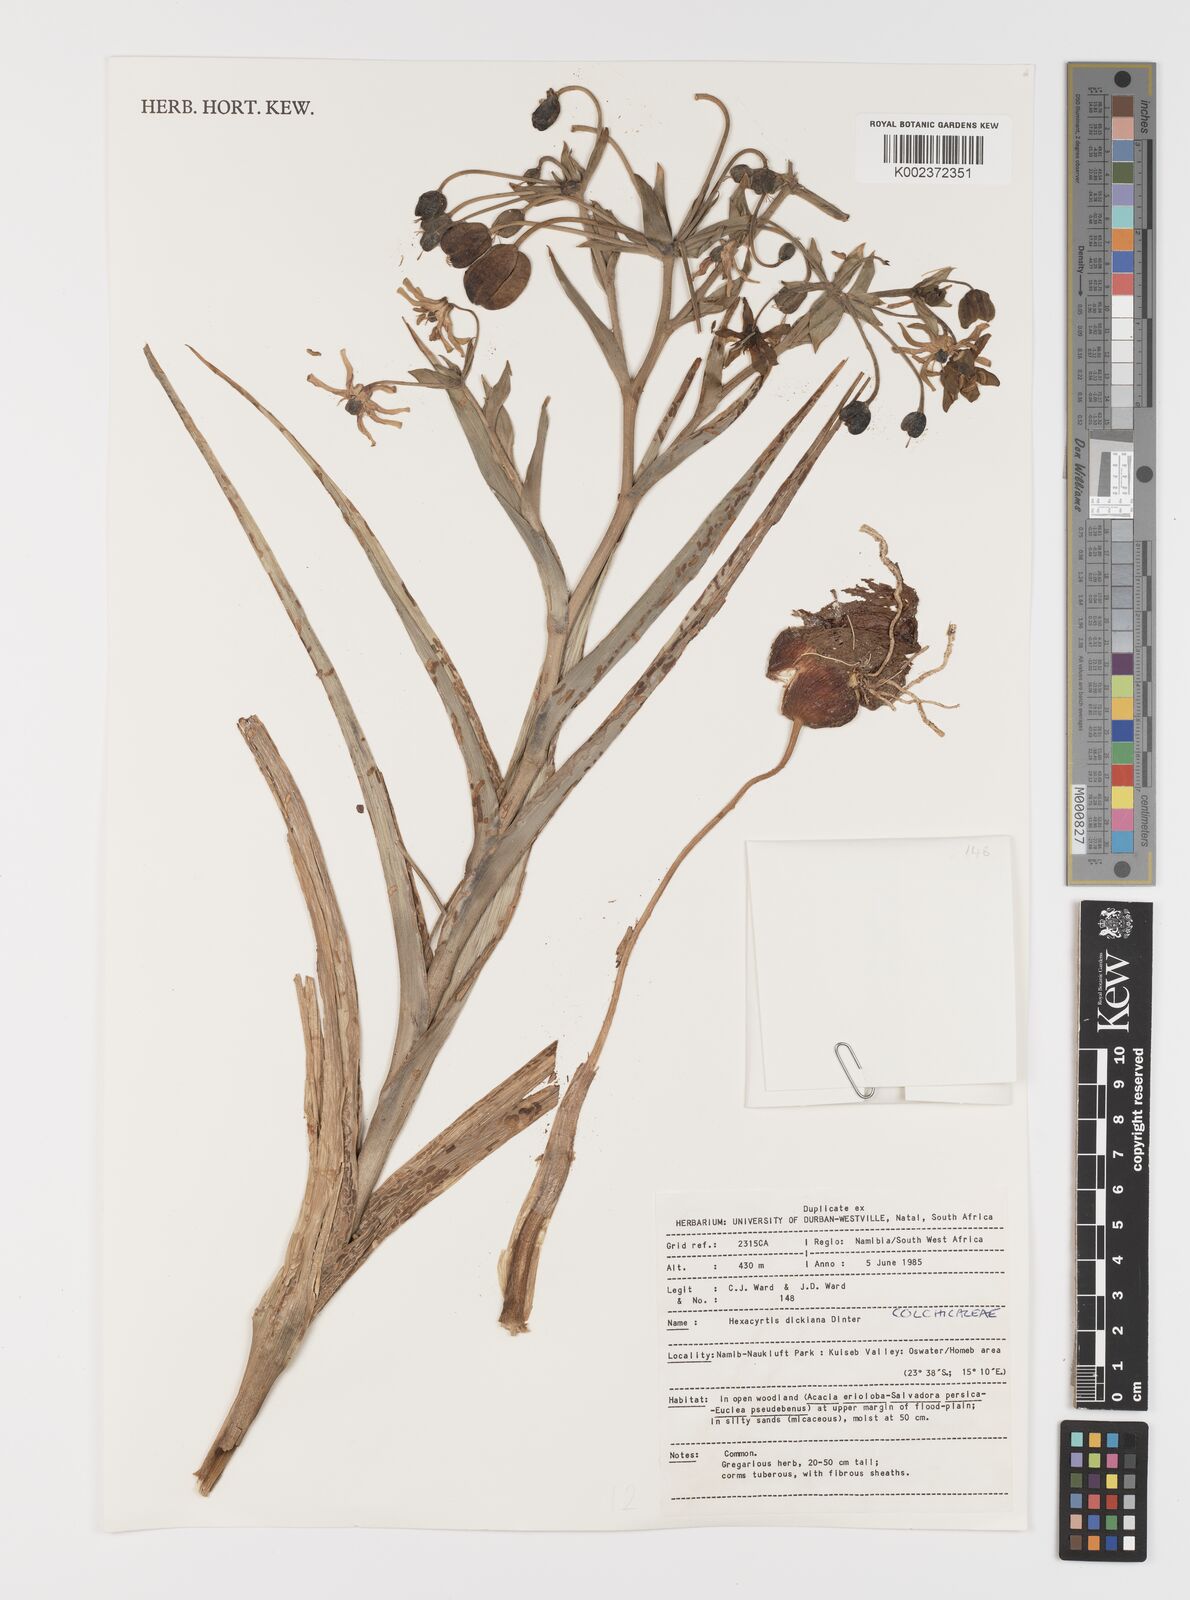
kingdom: Plantae
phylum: Tracheophyta
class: Liliopsida
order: Liliales
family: Colchicaceae
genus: Hexacyrtis
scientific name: Hexacyrtis dickiana
